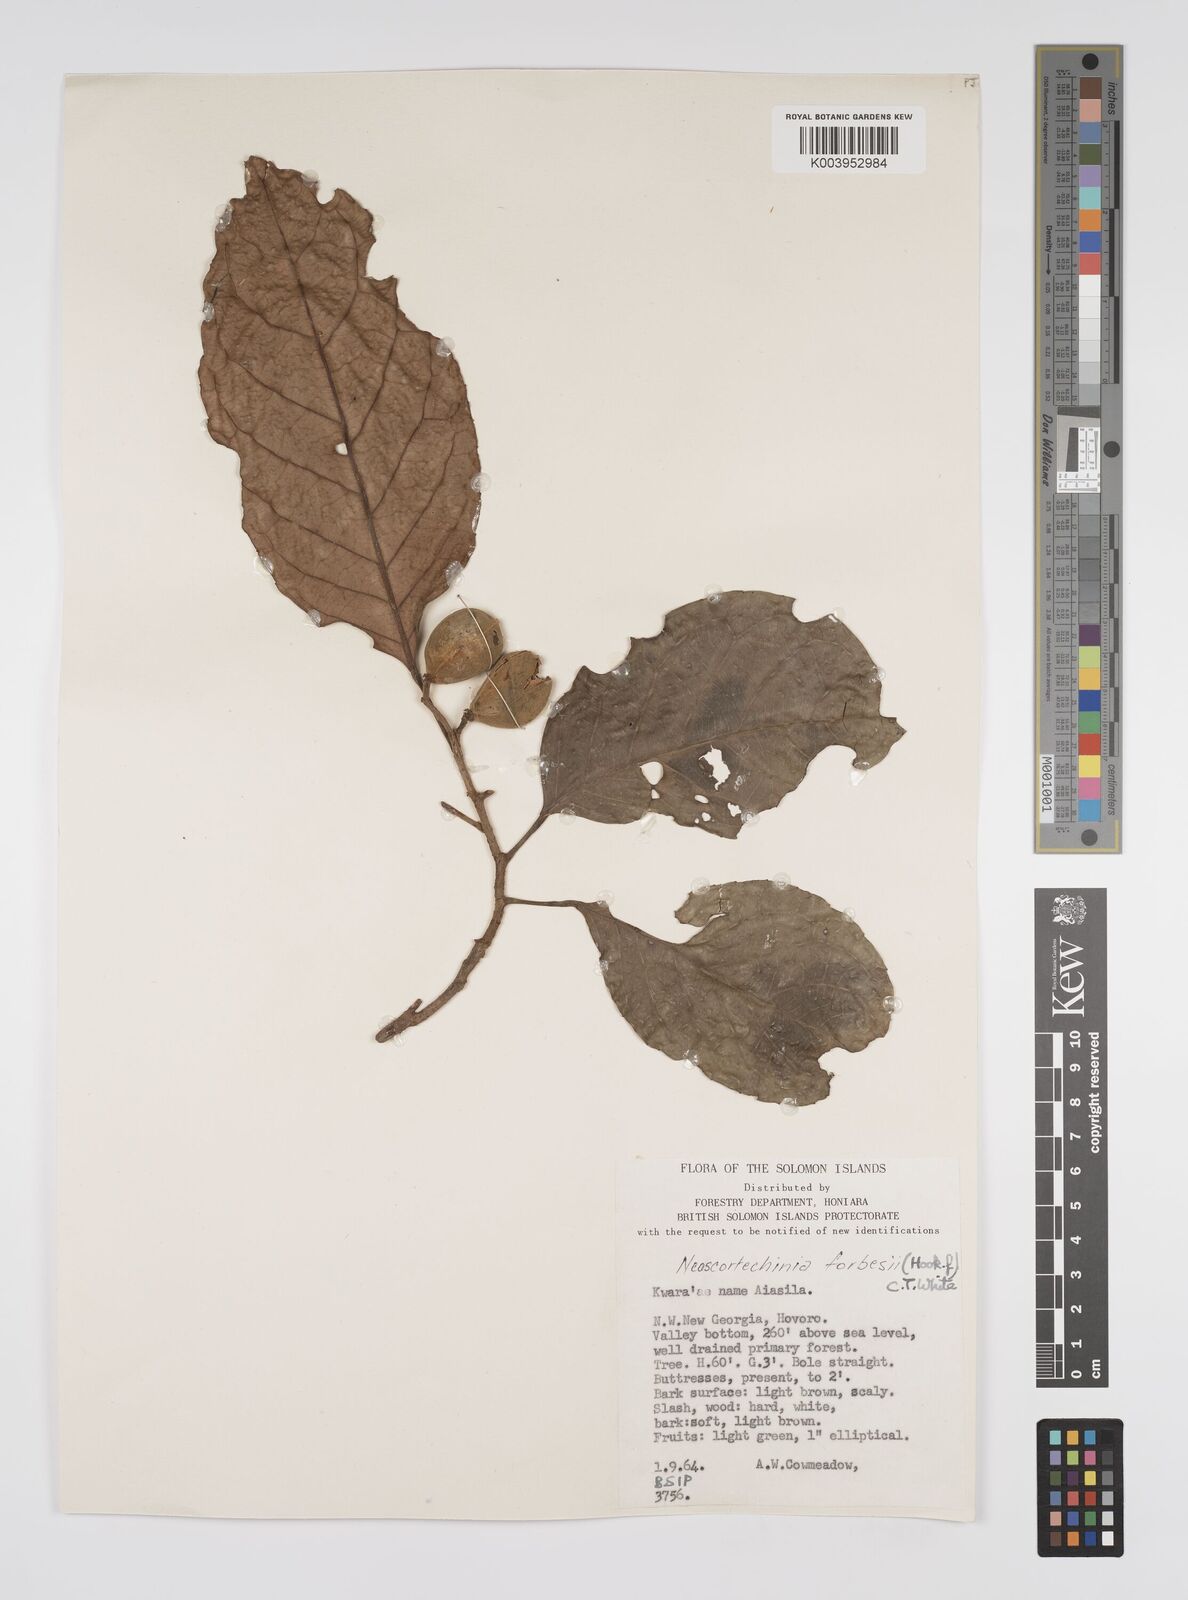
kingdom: Plantae
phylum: Tracheophyta
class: Magnoliopsida
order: Malpighiales
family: Euphorbiaceae
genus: Neoscortechinia
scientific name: Neoscortechinia forbesii
